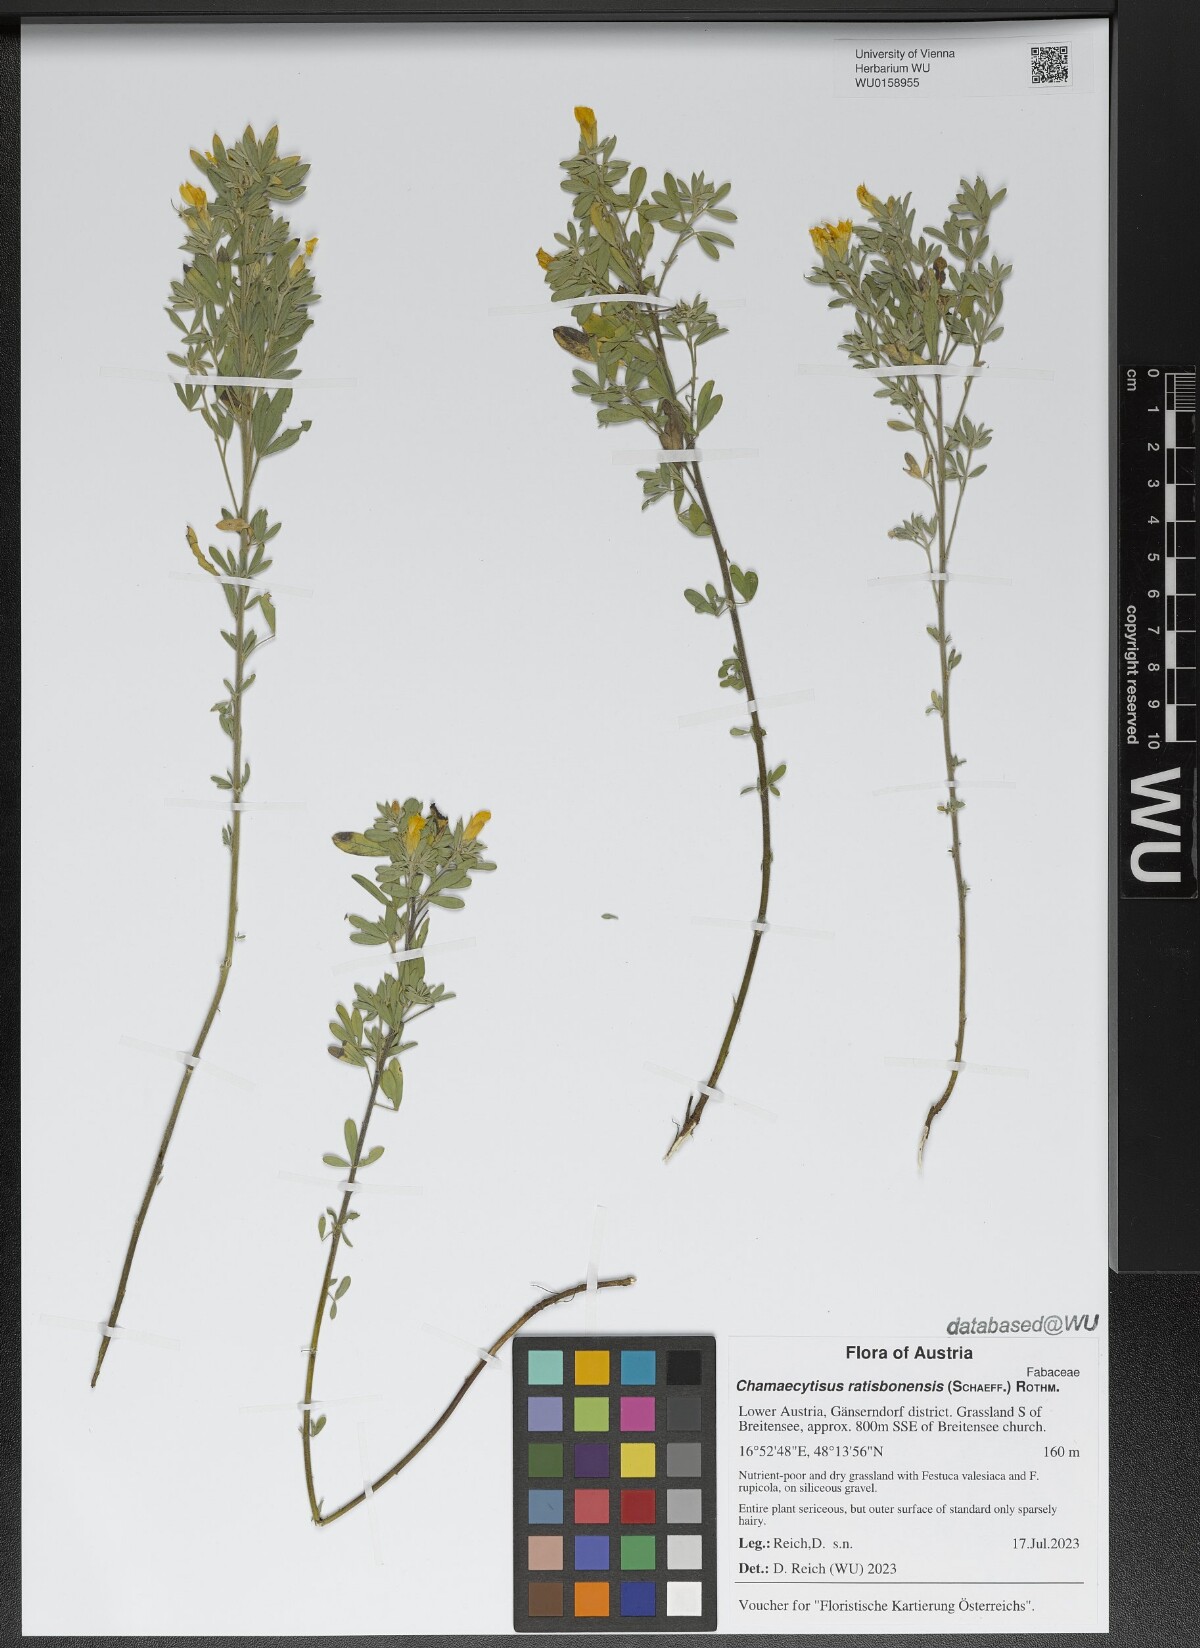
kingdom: Plantae
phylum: Tracheophyta
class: Magnoliopsida
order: Fabales
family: Fabaceae
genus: Chamaecytisus
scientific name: Chamaecytisus ratisbonensis
